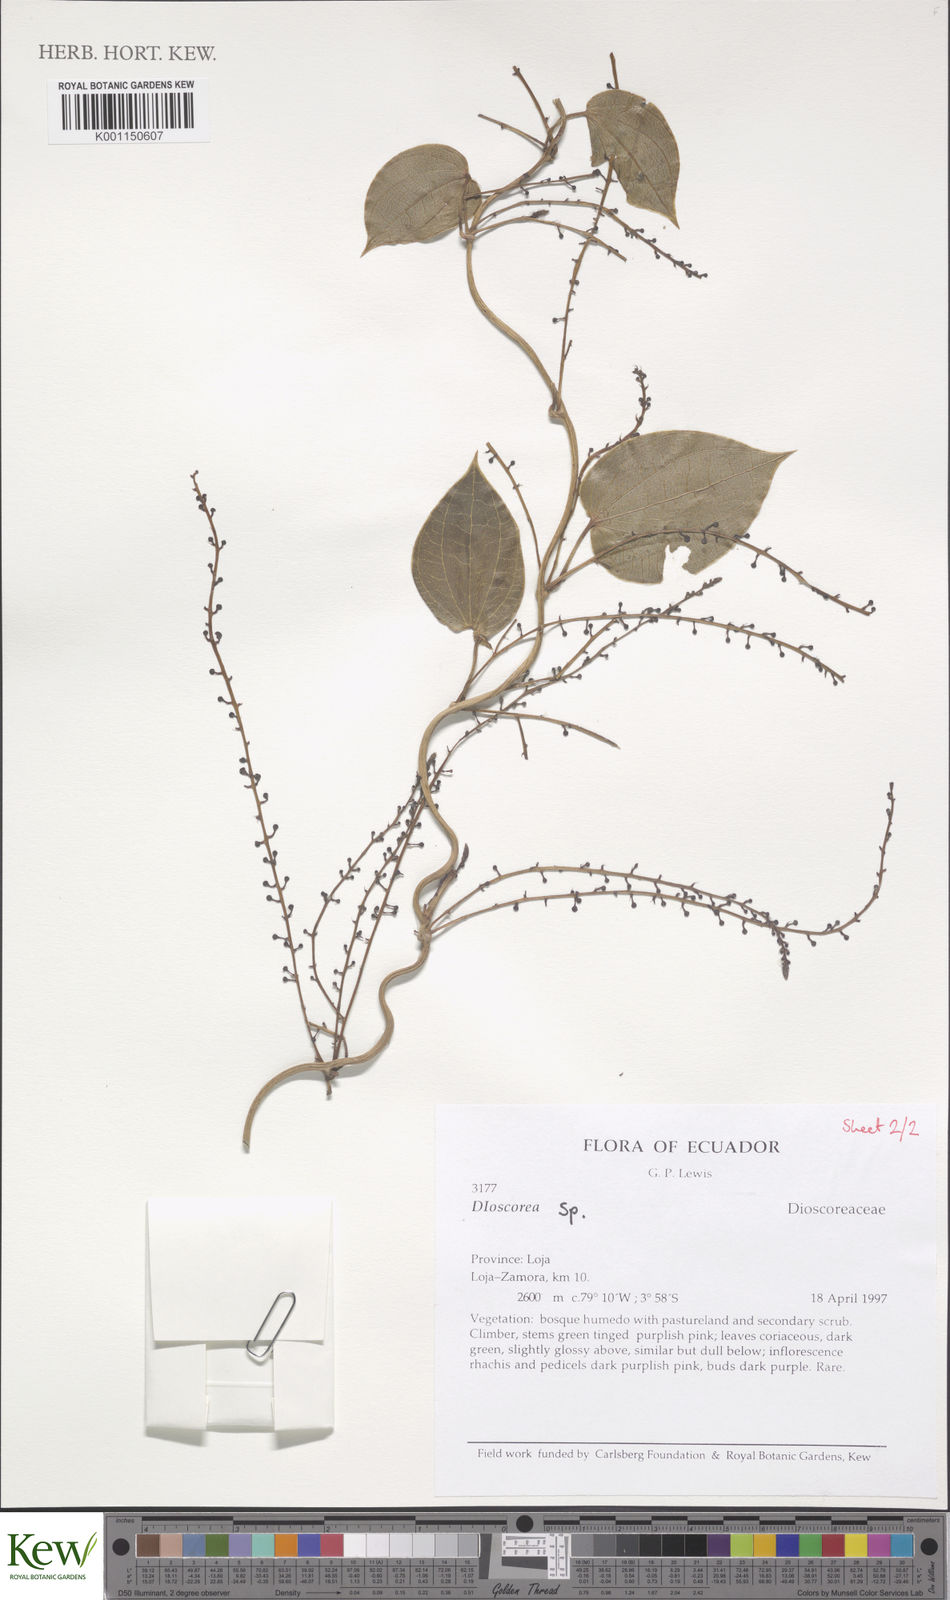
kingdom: Plantae
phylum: Tracheophyta
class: Liliopsida
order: Dioscoreales
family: Dioscoreaceae
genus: Dioscorea
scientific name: Dioscorea
